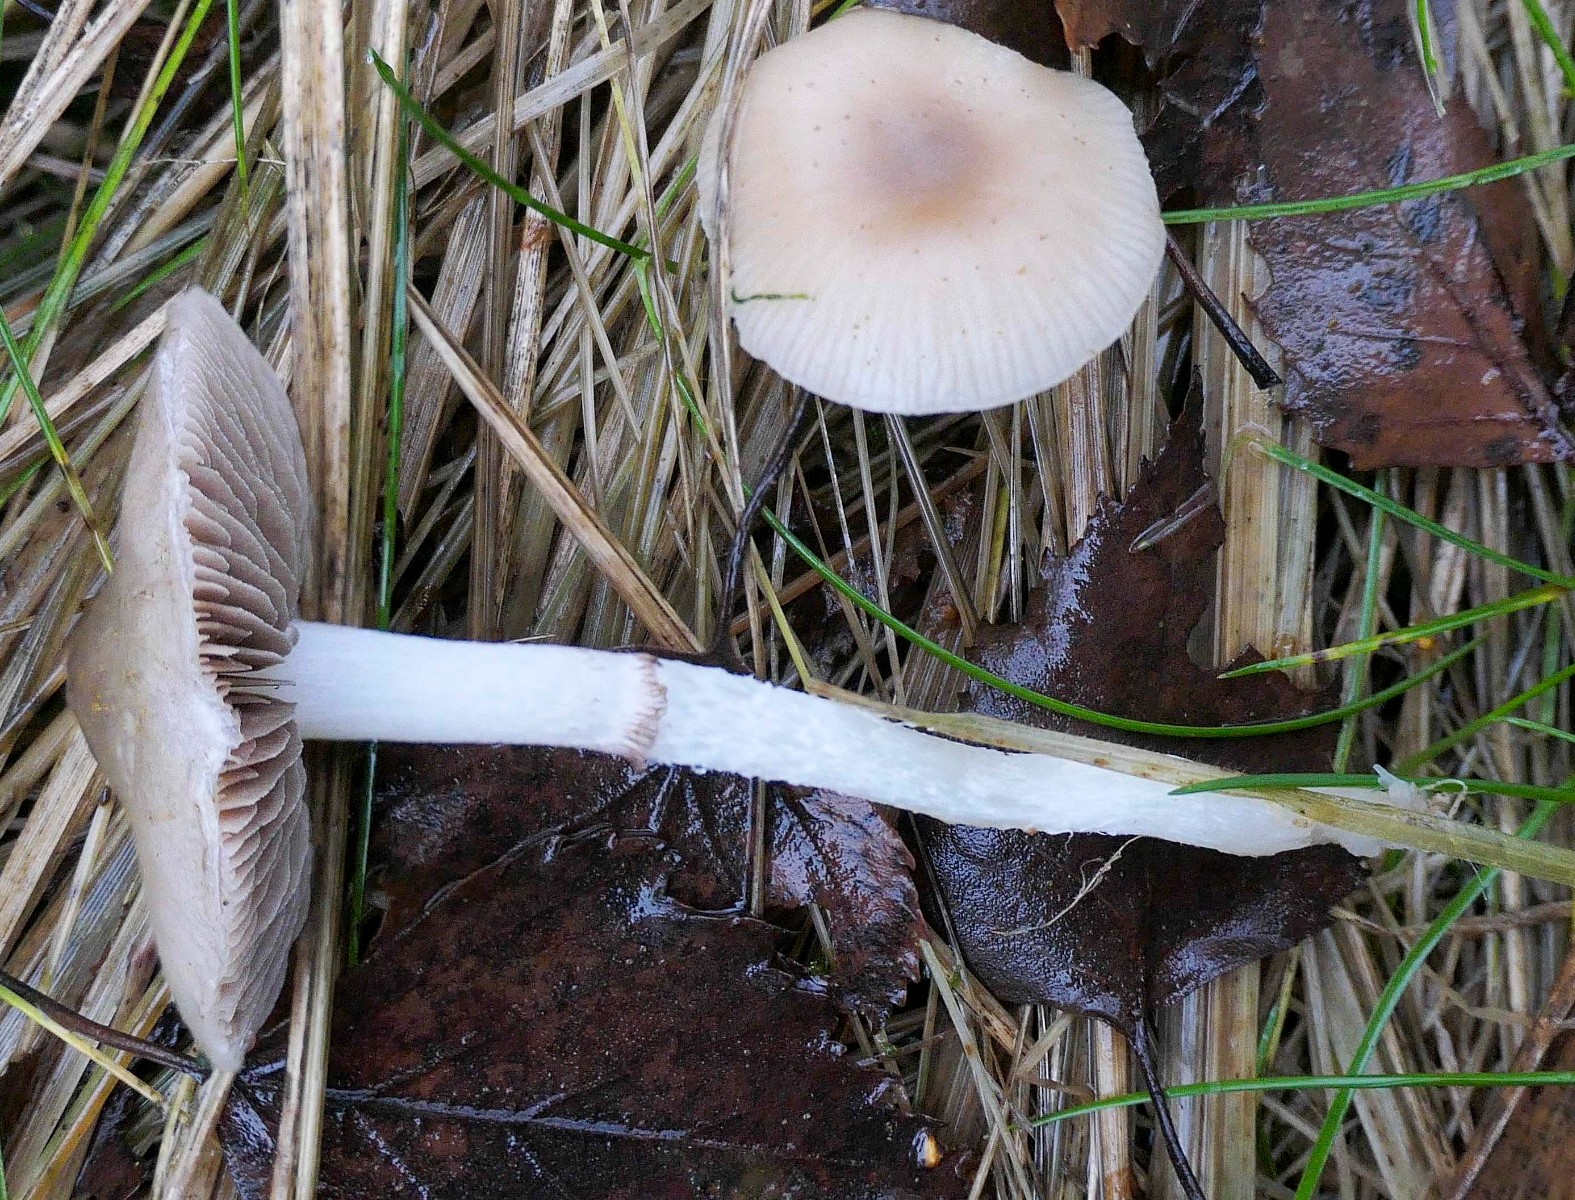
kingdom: Fungi
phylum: Basidiomycota
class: Agaricomycetes
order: Agaricales
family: Strophariaceae
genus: Stropharia
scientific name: Stropharia inuncta
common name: lillabrun bredblad
